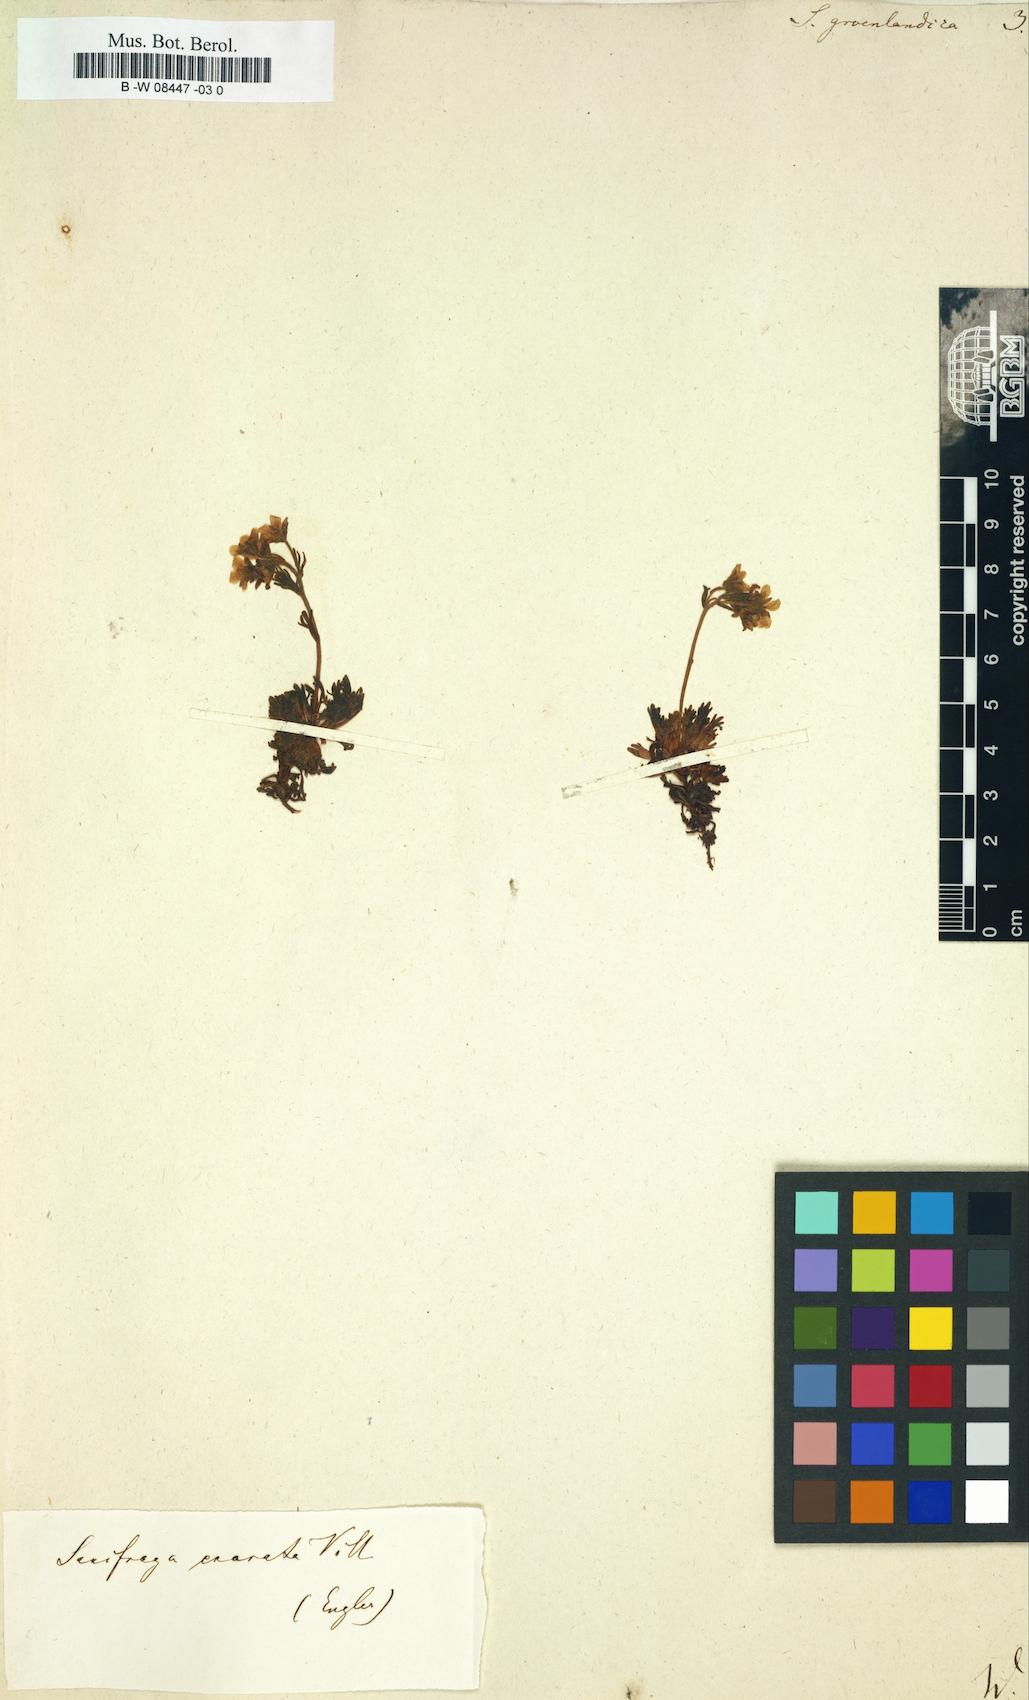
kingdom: Plantae
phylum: Tracheophyta
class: Magnoliopsida
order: Saxifragales
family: Saxifragaceae
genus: Saxifraga
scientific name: Saxifraga
